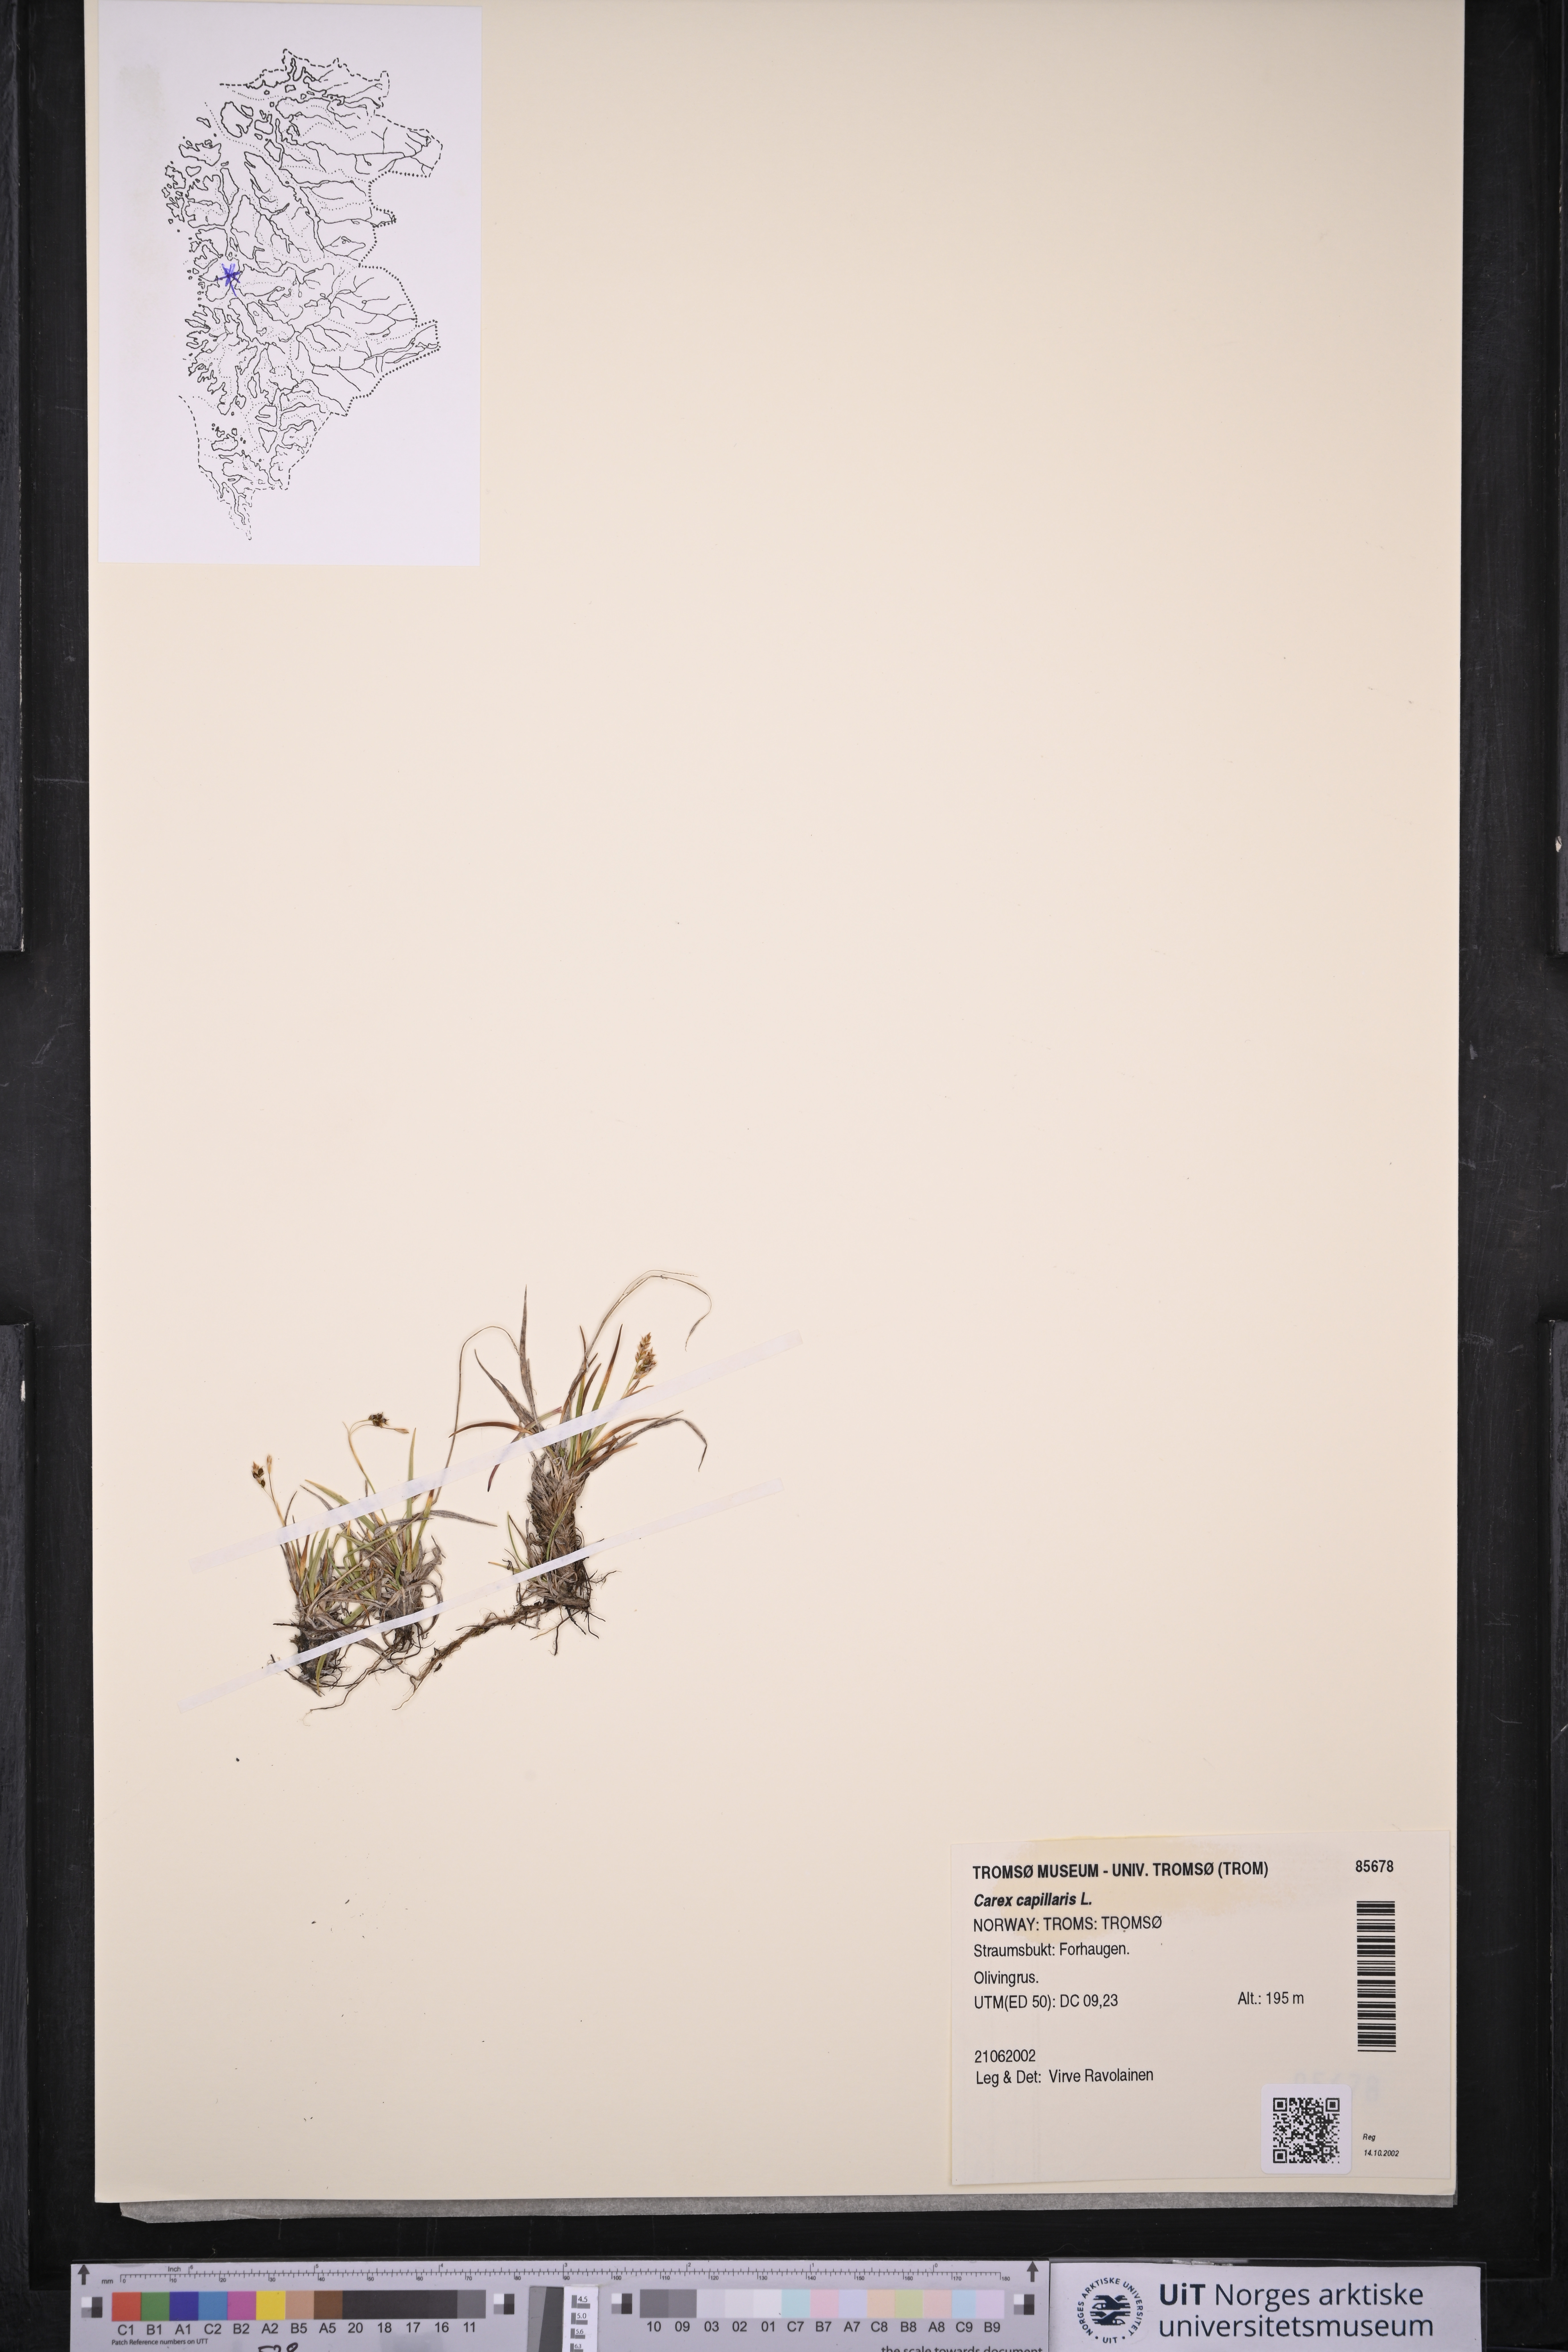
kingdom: Plantae
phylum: Tracheophyta
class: Liliopsida
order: Poales
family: Cyperaceae
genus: Carex
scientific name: Carex capillaris
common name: Hair sedge
